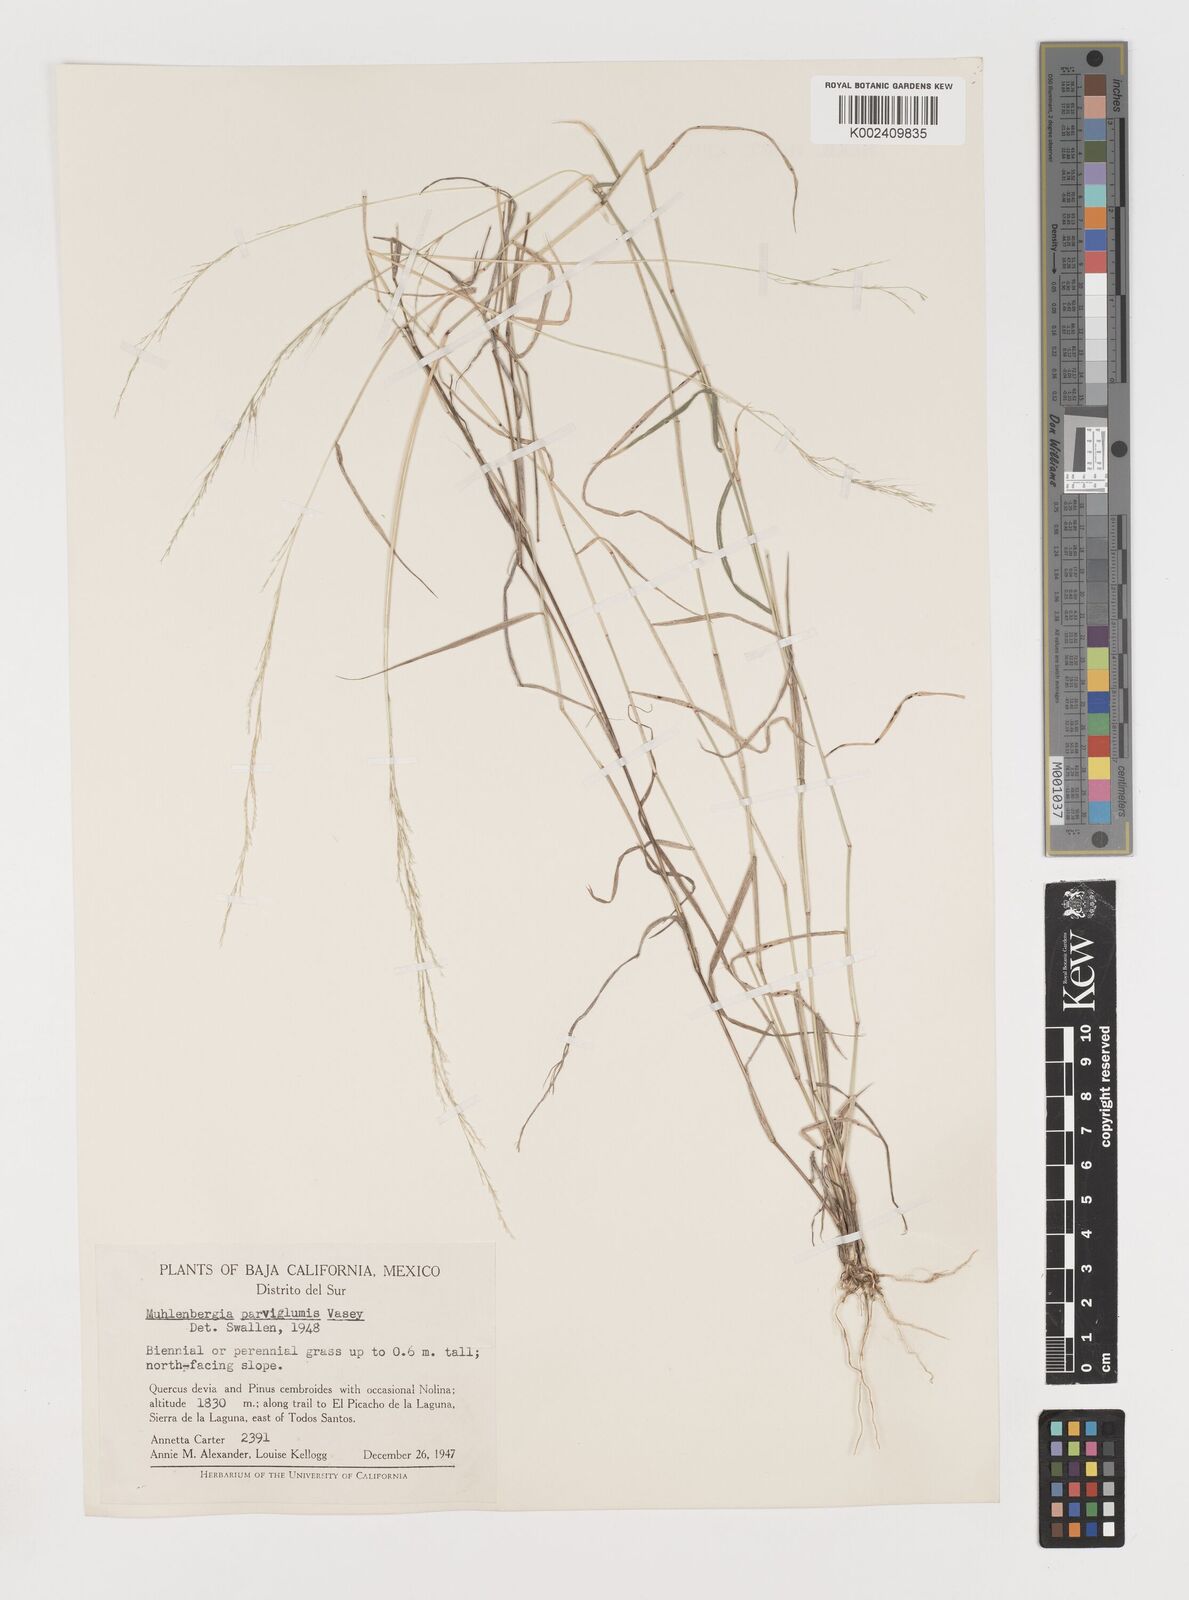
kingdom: Plantae
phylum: Tracheophyta
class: Liliopsida
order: Poales
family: Poaceae
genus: Muhlenbergia
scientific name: Muhlenbergia spiciformis
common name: Longawn muhly
